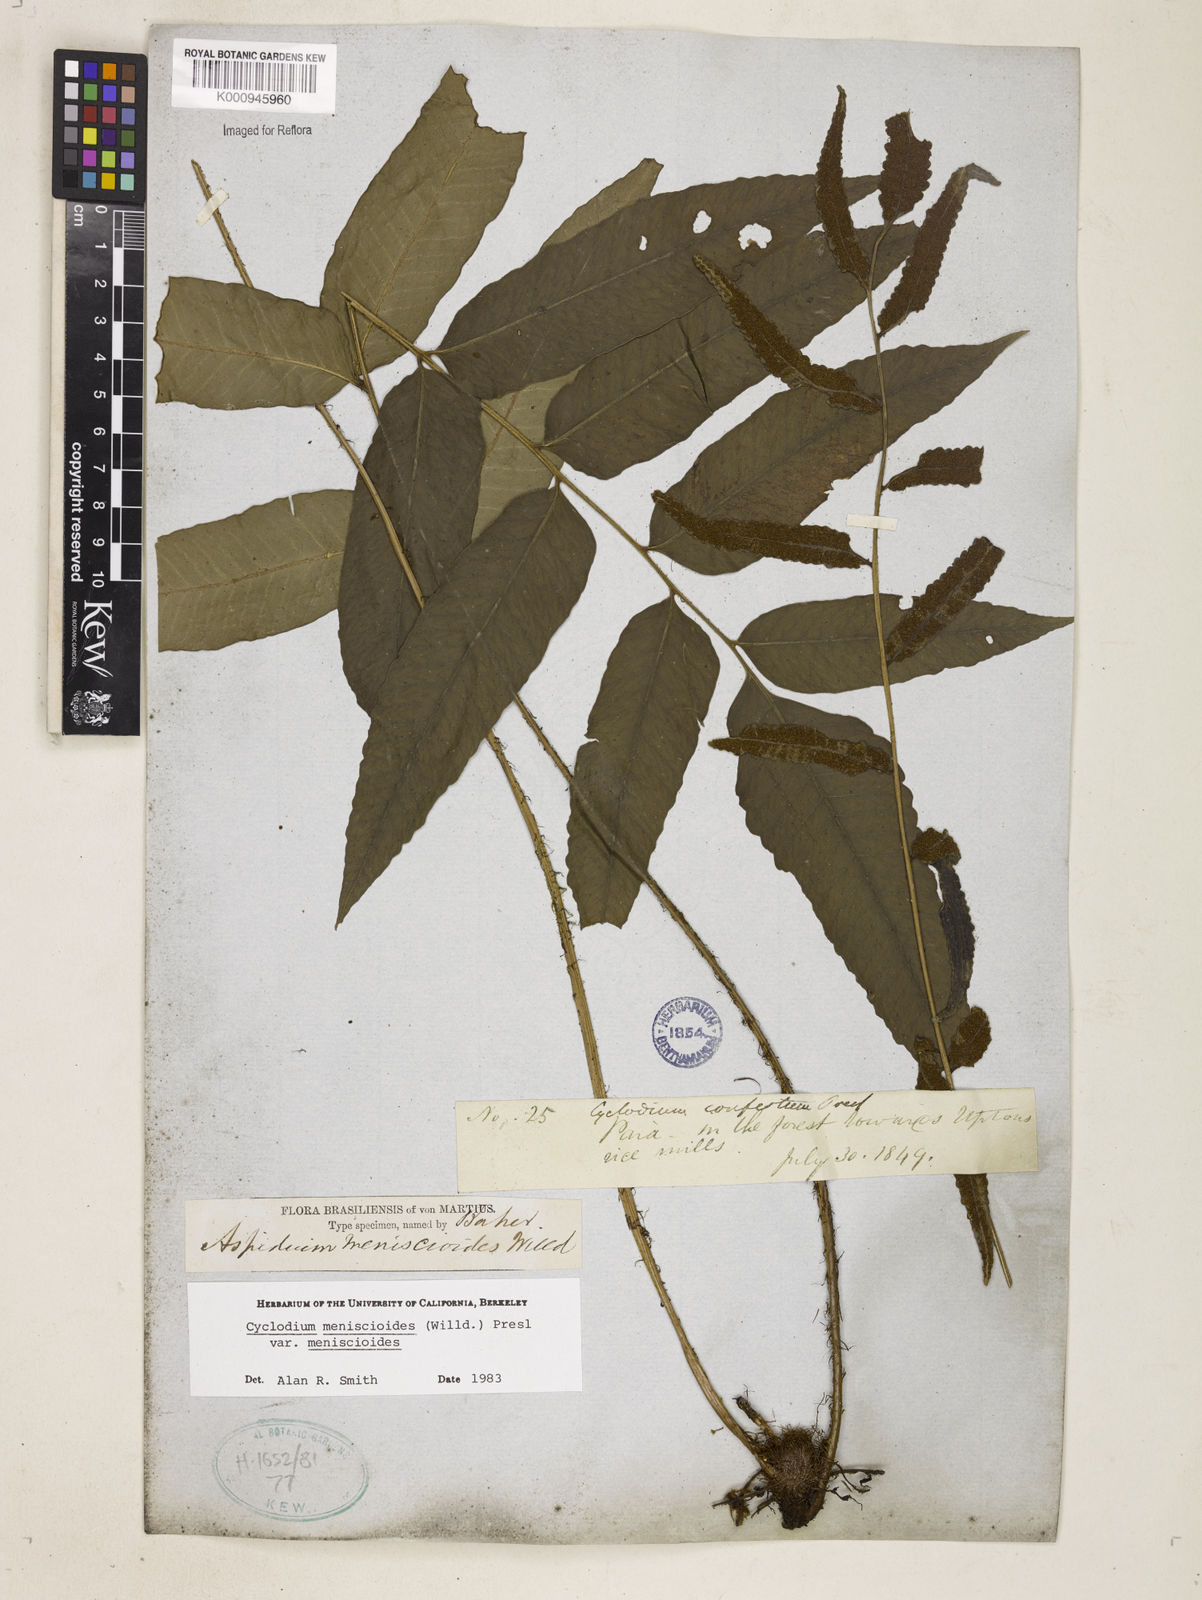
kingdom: Plantae
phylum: Tracheophyta
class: Polypodiopsida
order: Polypodiales
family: Dryopteridaceae
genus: Cyclodium
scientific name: Cyclodium meniscioides
